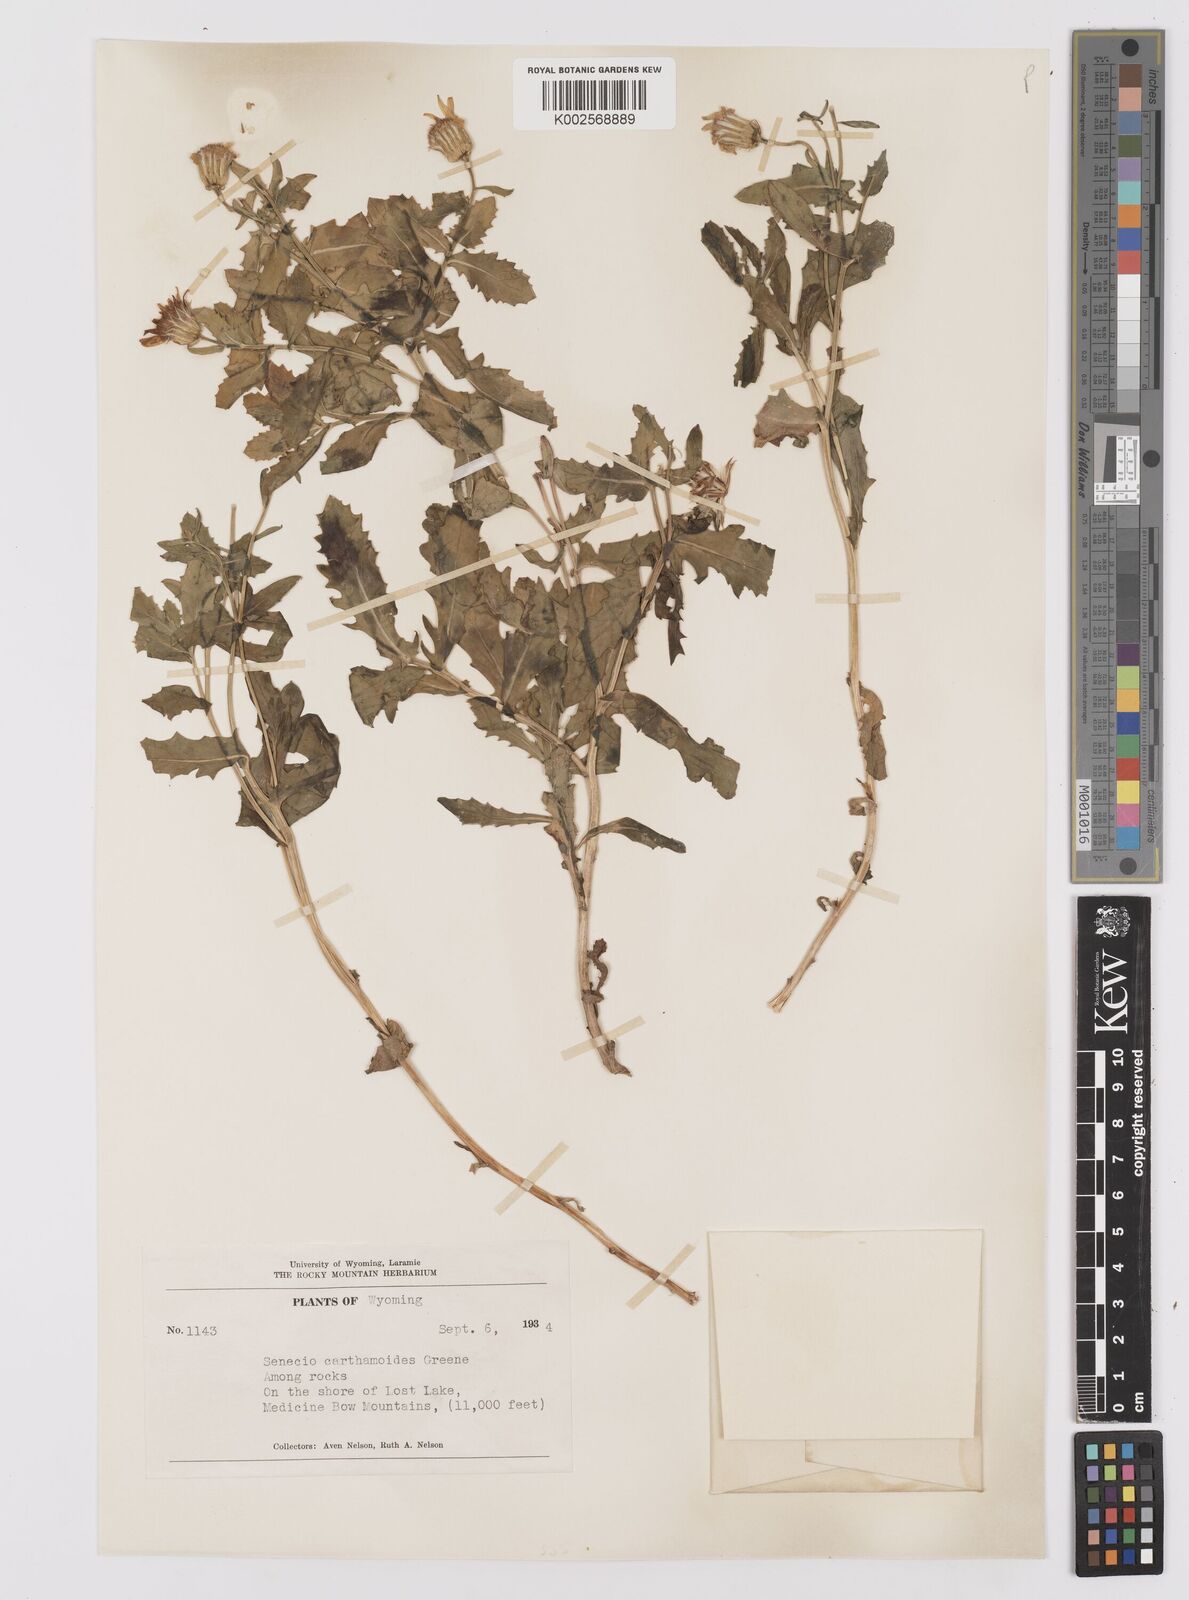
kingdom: Plantae
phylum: Tracheophyta
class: Magnoliopsida
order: Asterales
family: Asteraceae
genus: Senecio
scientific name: Senecio blitoides
